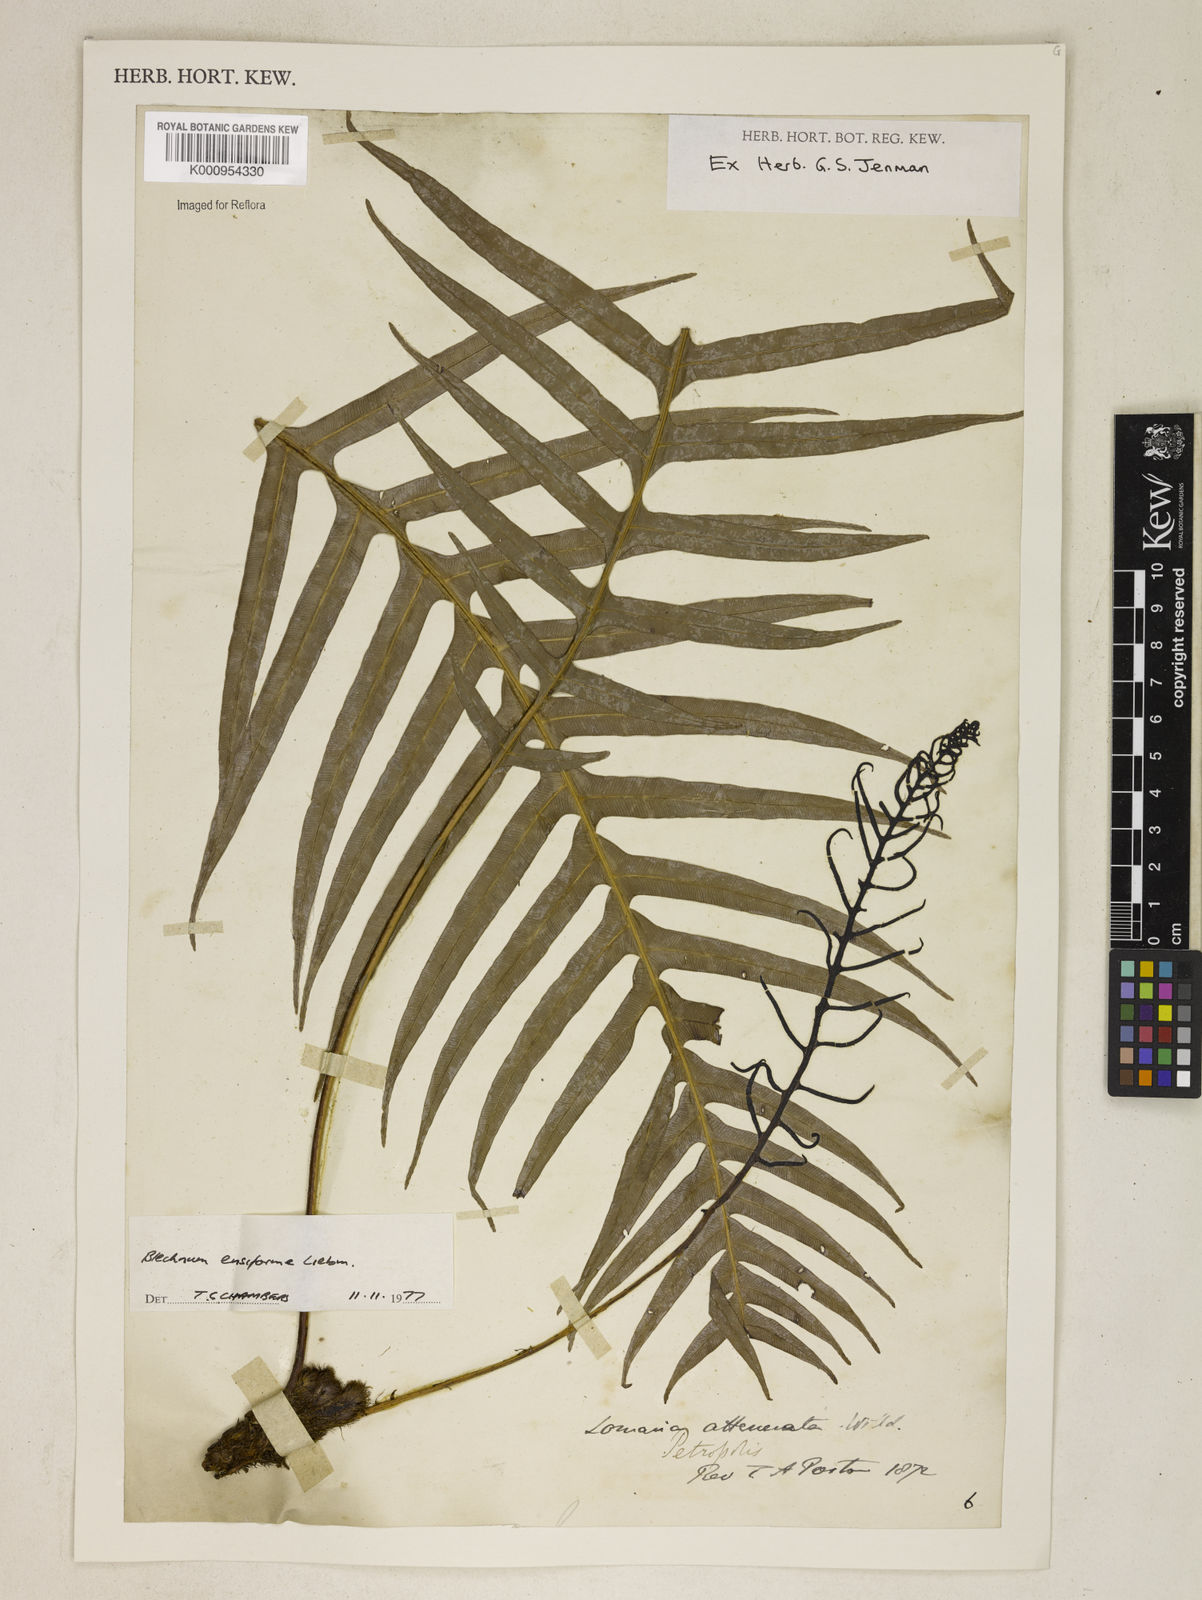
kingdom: Plantae
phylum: Tracheophyta
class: Polypodiopsida
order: Polypodiales
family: Blechnaceae
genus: Lomaridium
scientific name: Lomaridium ensiforme
